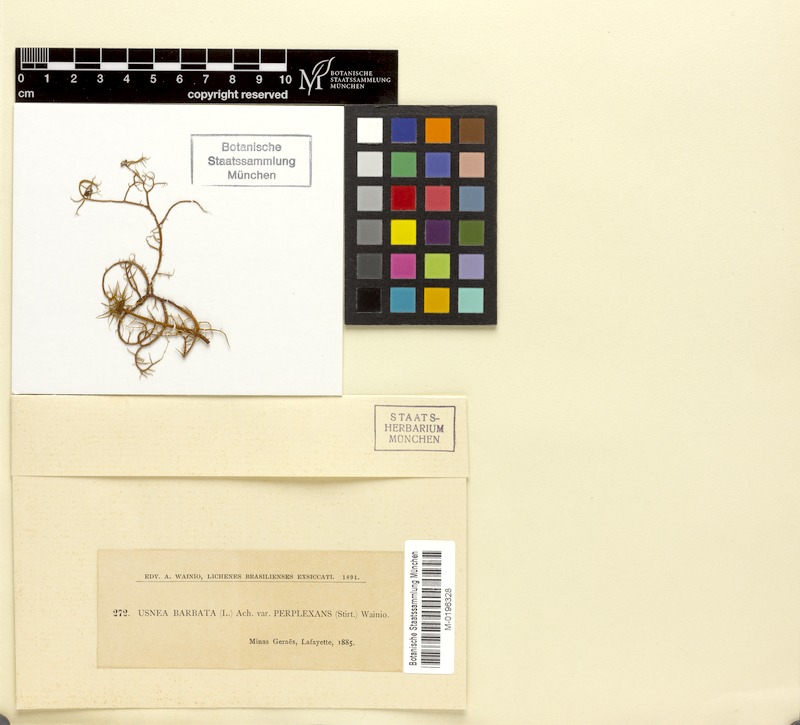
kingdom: Fungi
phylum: Ascomycota
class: Lecanoromycetes
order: Lecanorales
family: Parmeliaceae
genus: Usnea
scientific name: Usnea perplexans
